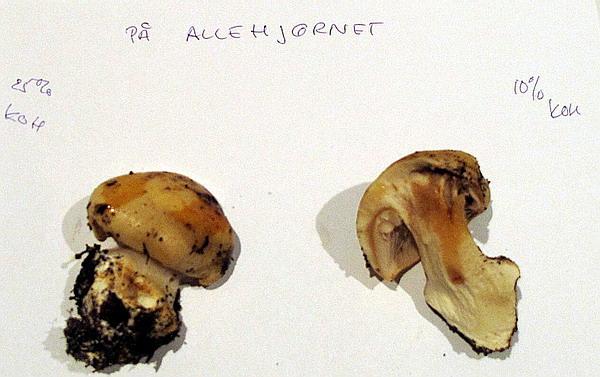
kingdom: Fungi
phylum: Basidiomycota
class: Agaricomycetes
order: Agaricales
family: Cortinariaceae
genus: Phlegmacium
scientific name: Phlegmacium xantho-ochraceum
